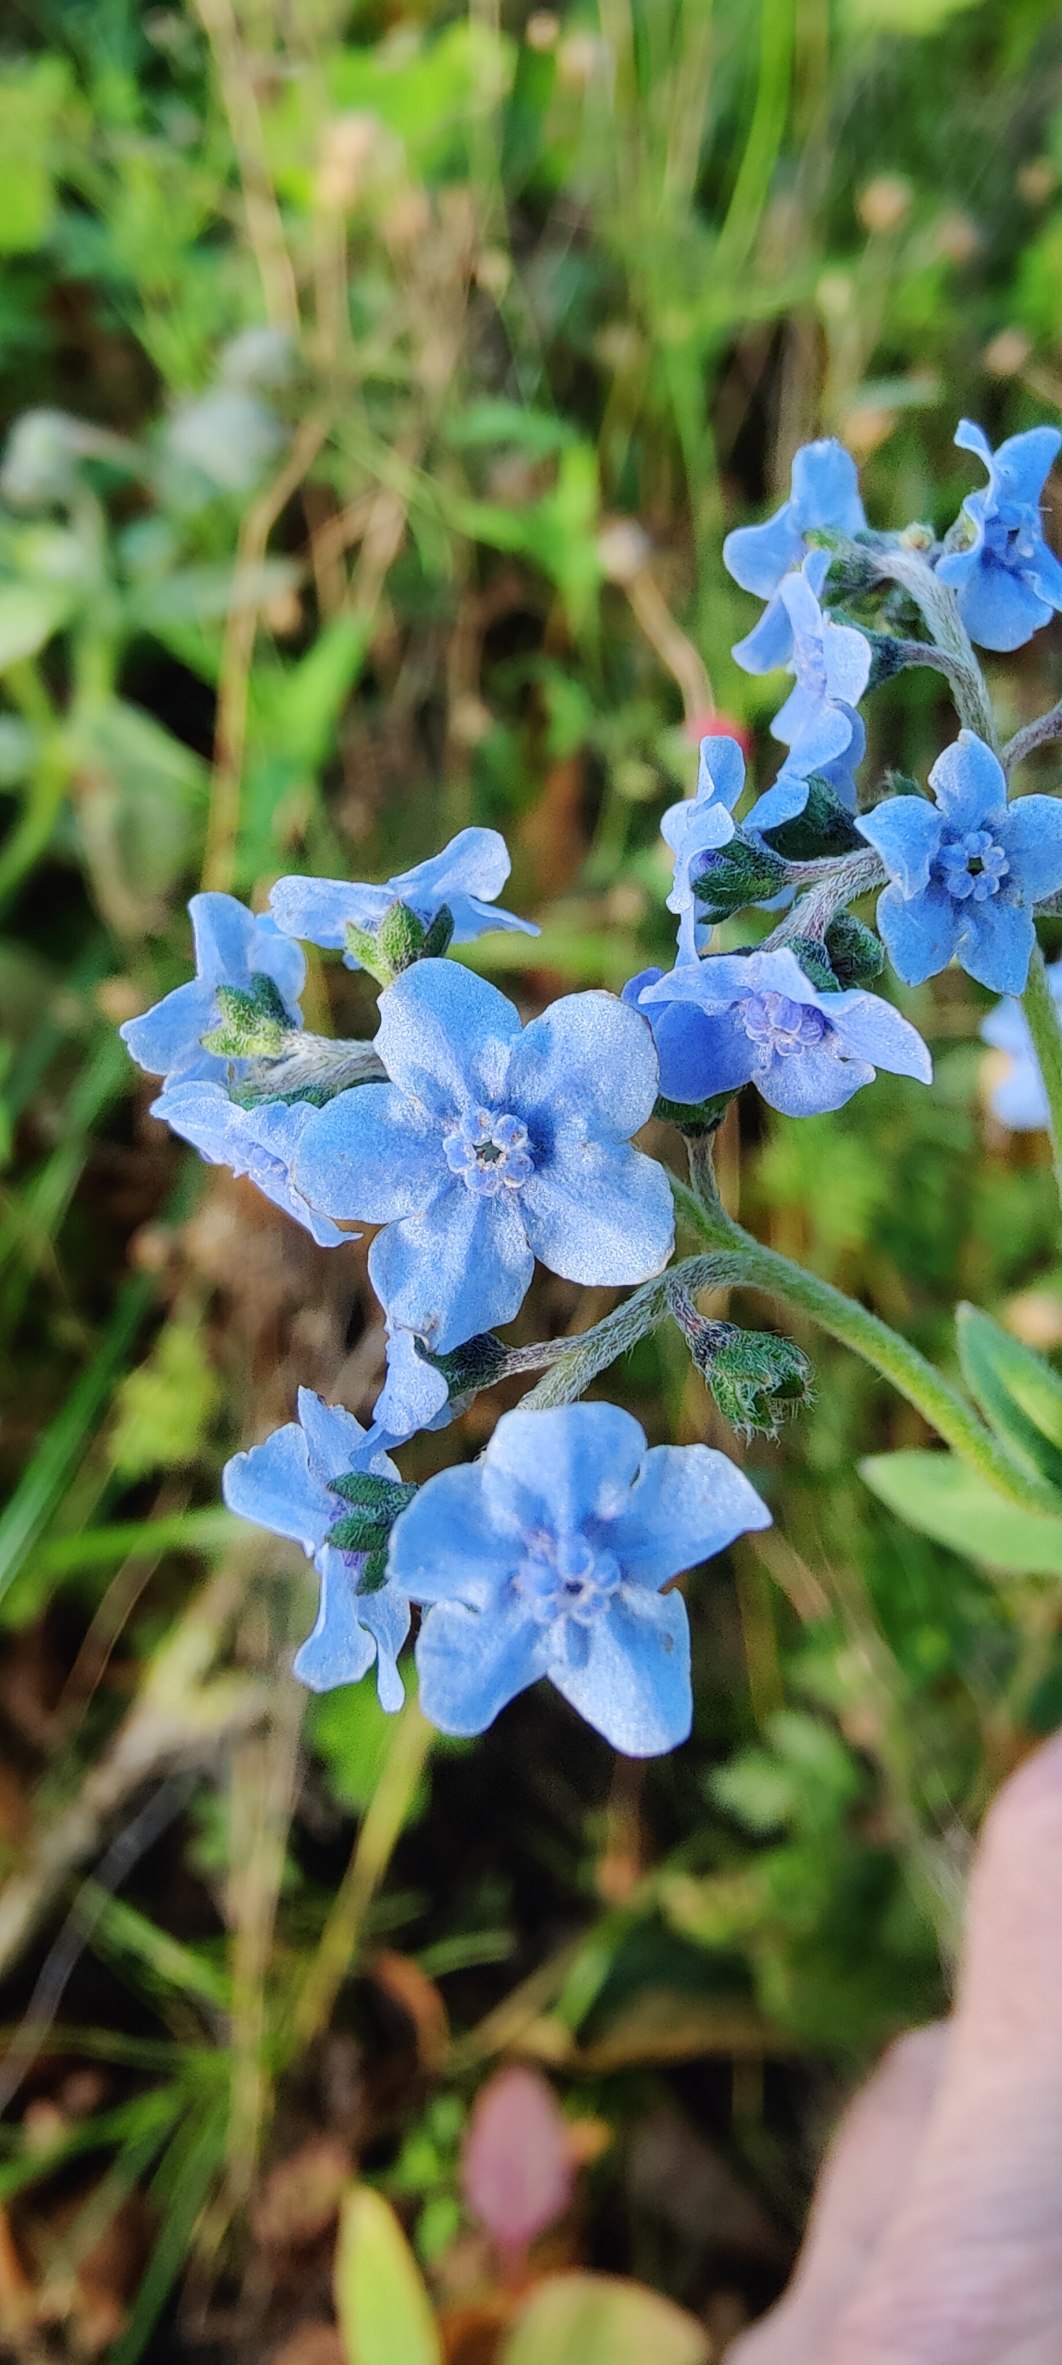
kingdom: Plantae
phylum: Tracheophyta
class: Magnoliopsida
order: Boraginales
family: Boraginaceae
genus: Cynoglossum
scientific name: Cynoglossum amabile
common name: Kinesisk hundetunge
